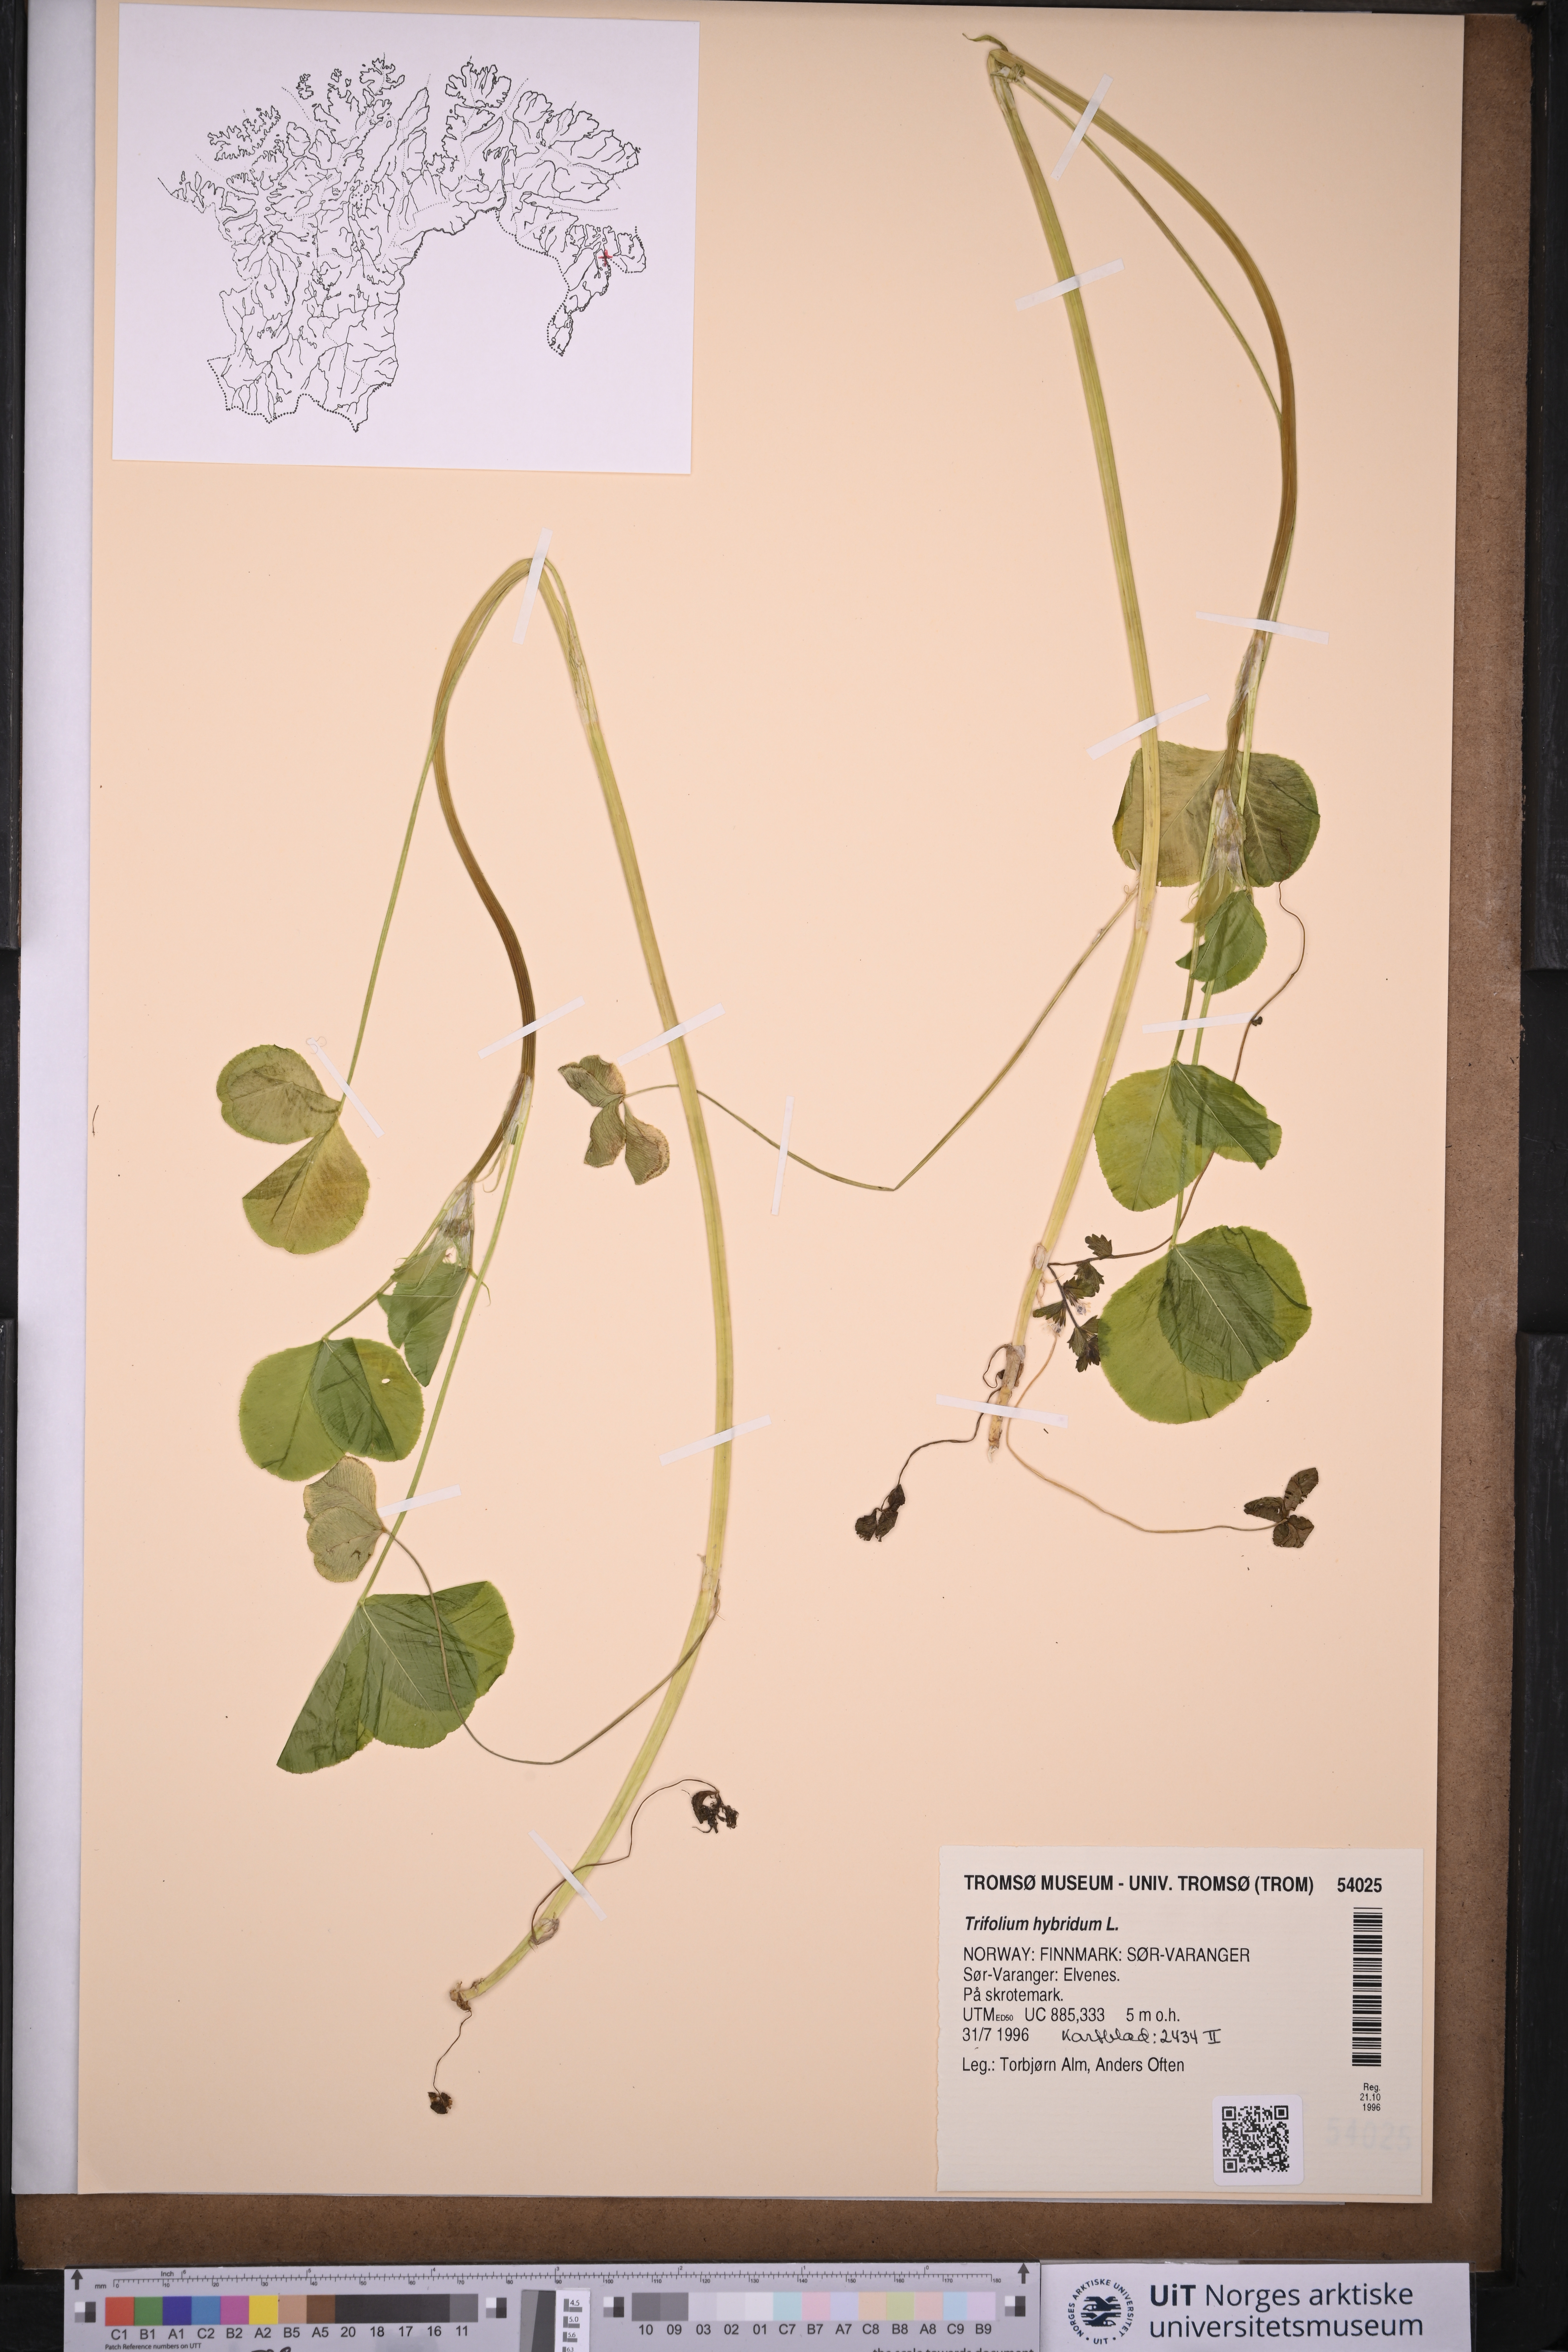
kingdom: Plantae
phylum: Tracheophyta
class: Magnoliopsida
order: Fabales
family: Fabaceae
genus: Trifolium
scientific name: Trifolium hybridum
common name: Alsike clover
